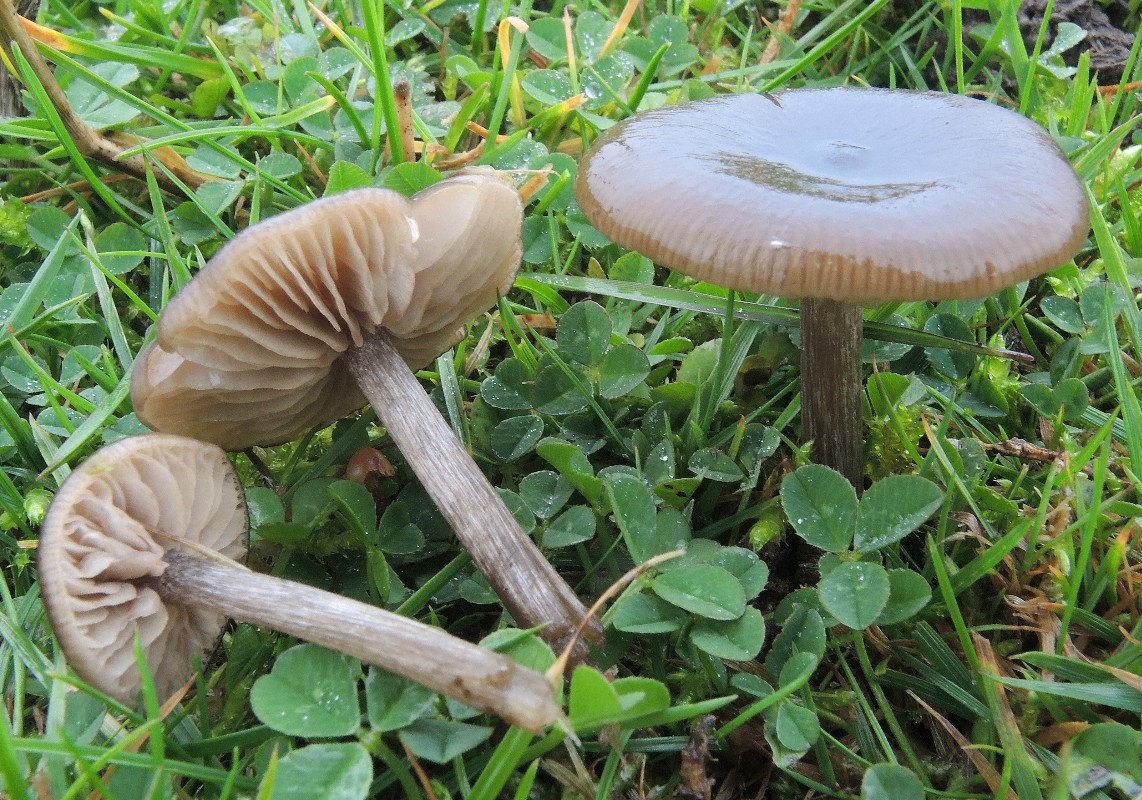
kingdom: Fungi
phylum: Basidiomycota
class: Agaricomycetes
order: Agaricales
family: Entolomataceae
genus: Entoloma
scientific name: Entoloma sericeum
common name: silkeglinsende rødblad
